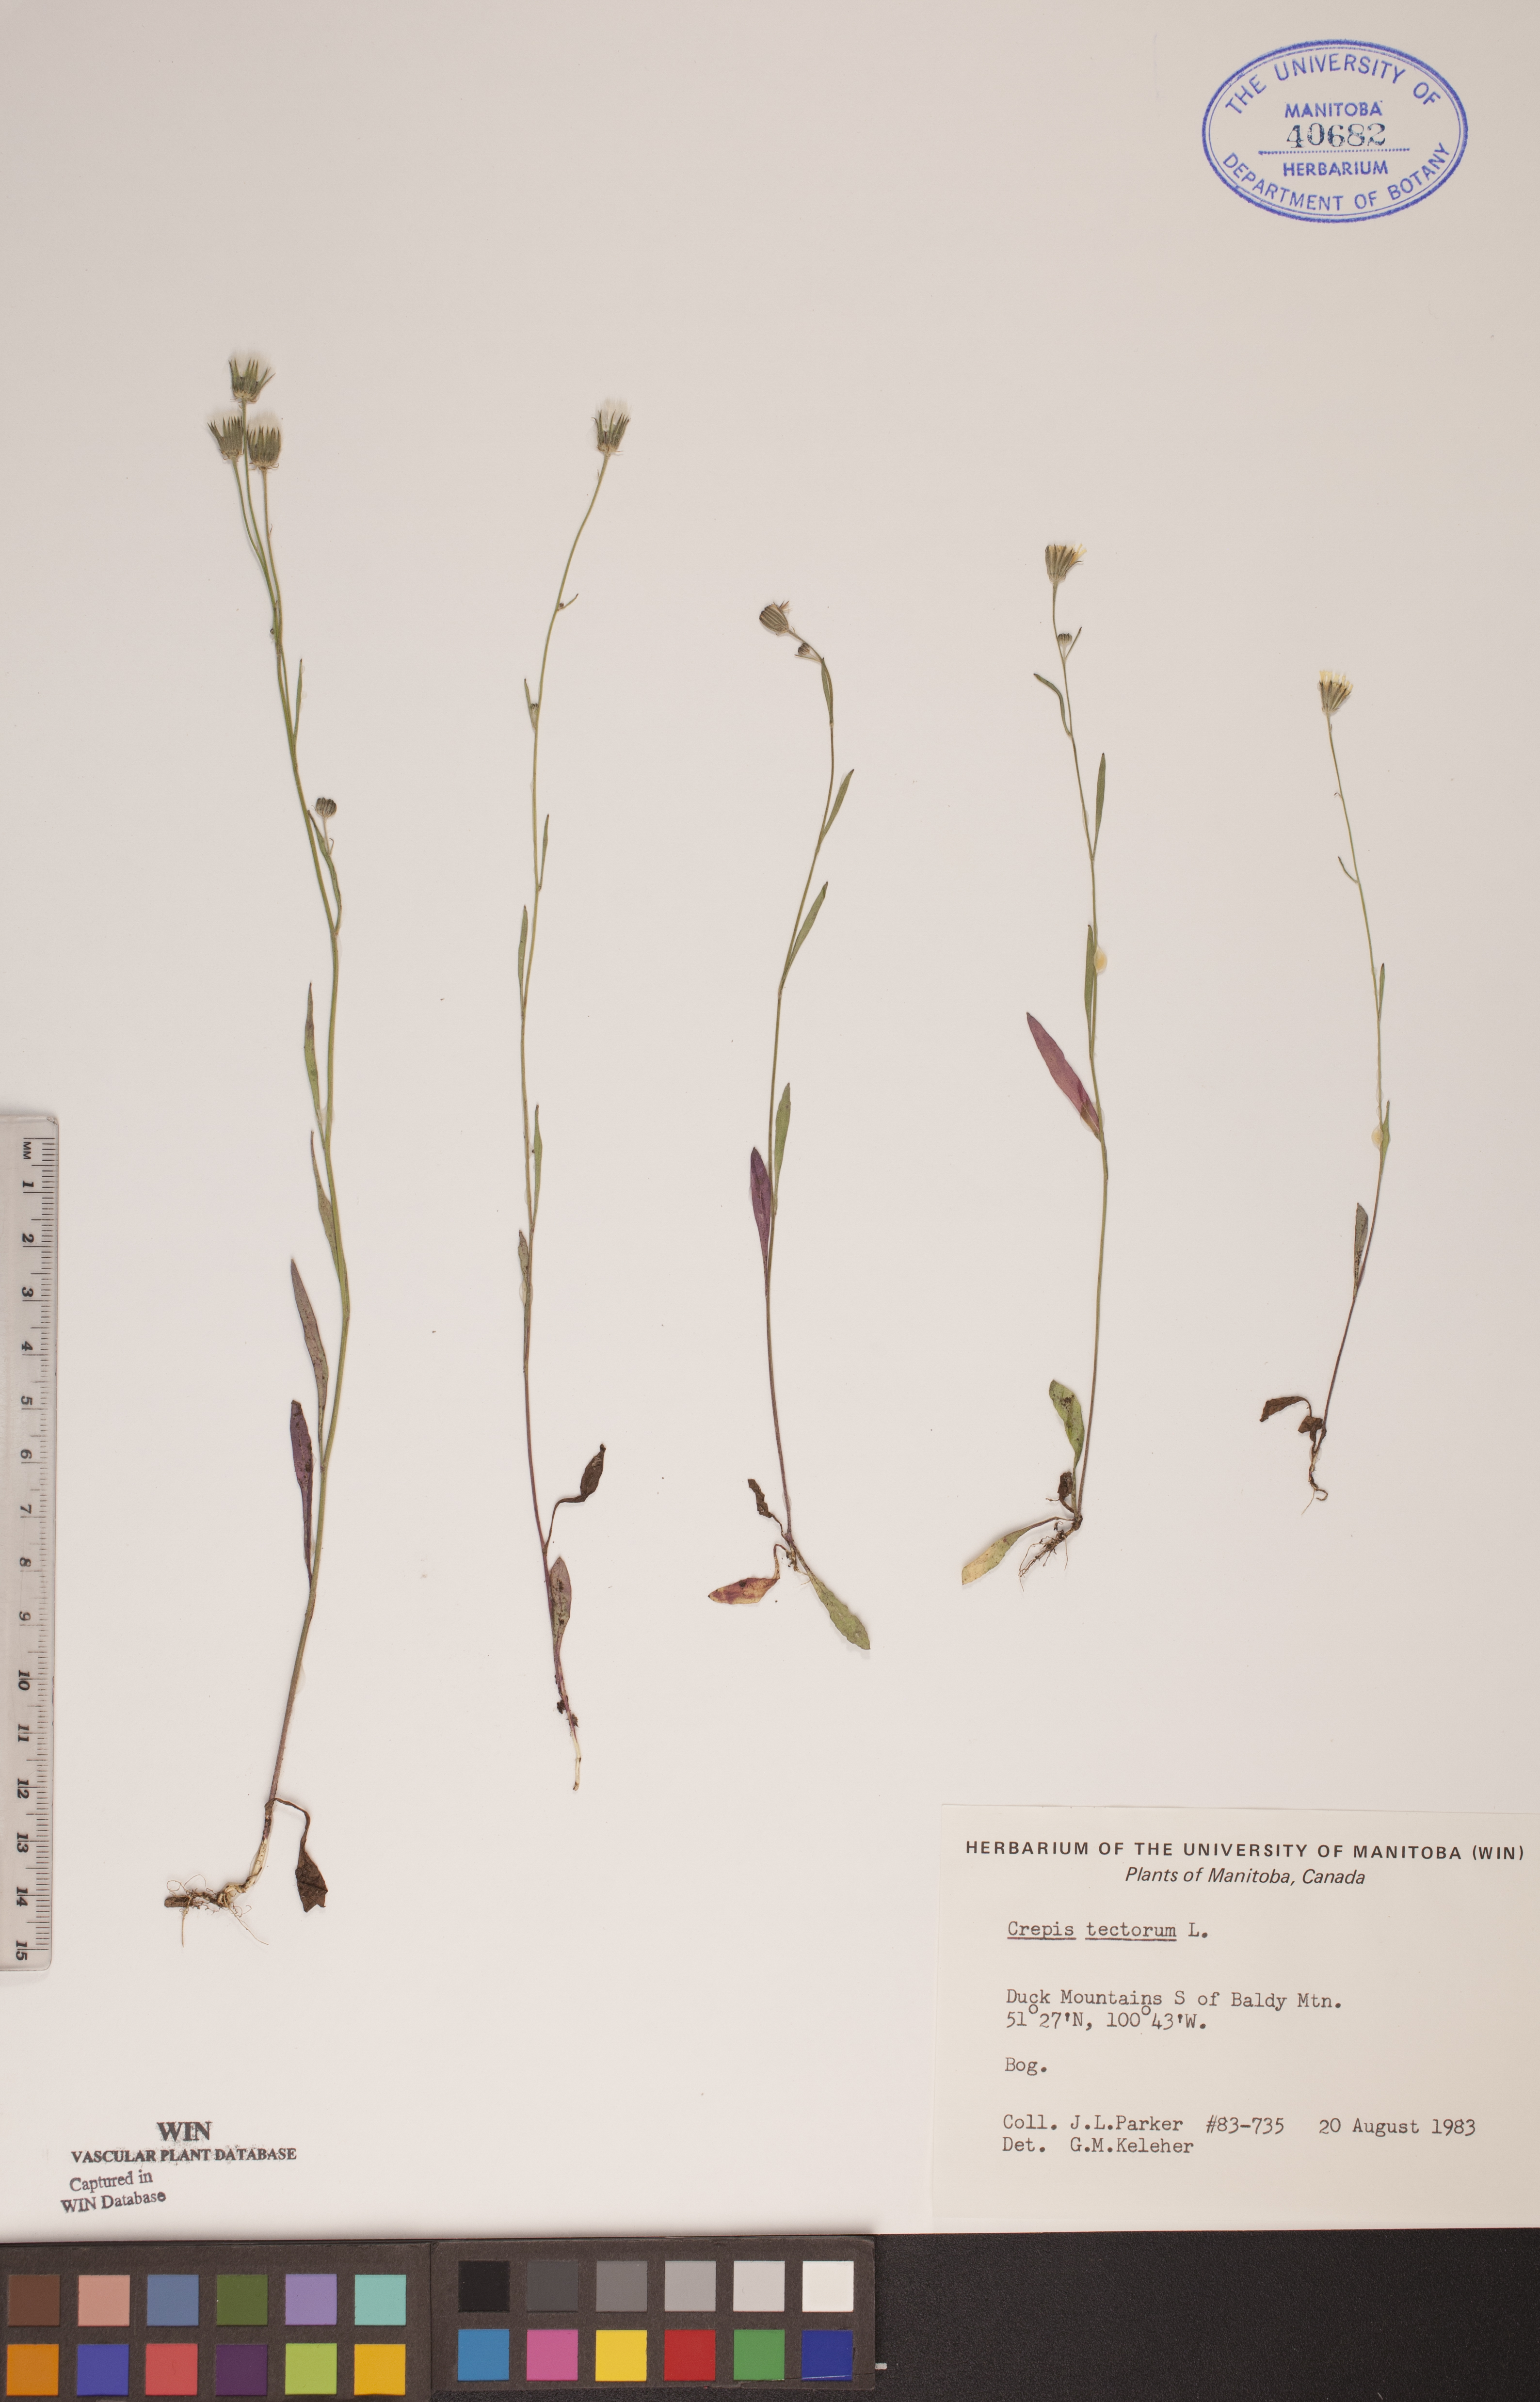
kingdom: Plantae
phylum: Tracheophyta
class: Magnoliopsida
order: Asterales
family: Asteraceae
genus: Crepis
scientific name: Crepis tectorum
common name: Narrow-leaved hawk's-beard
